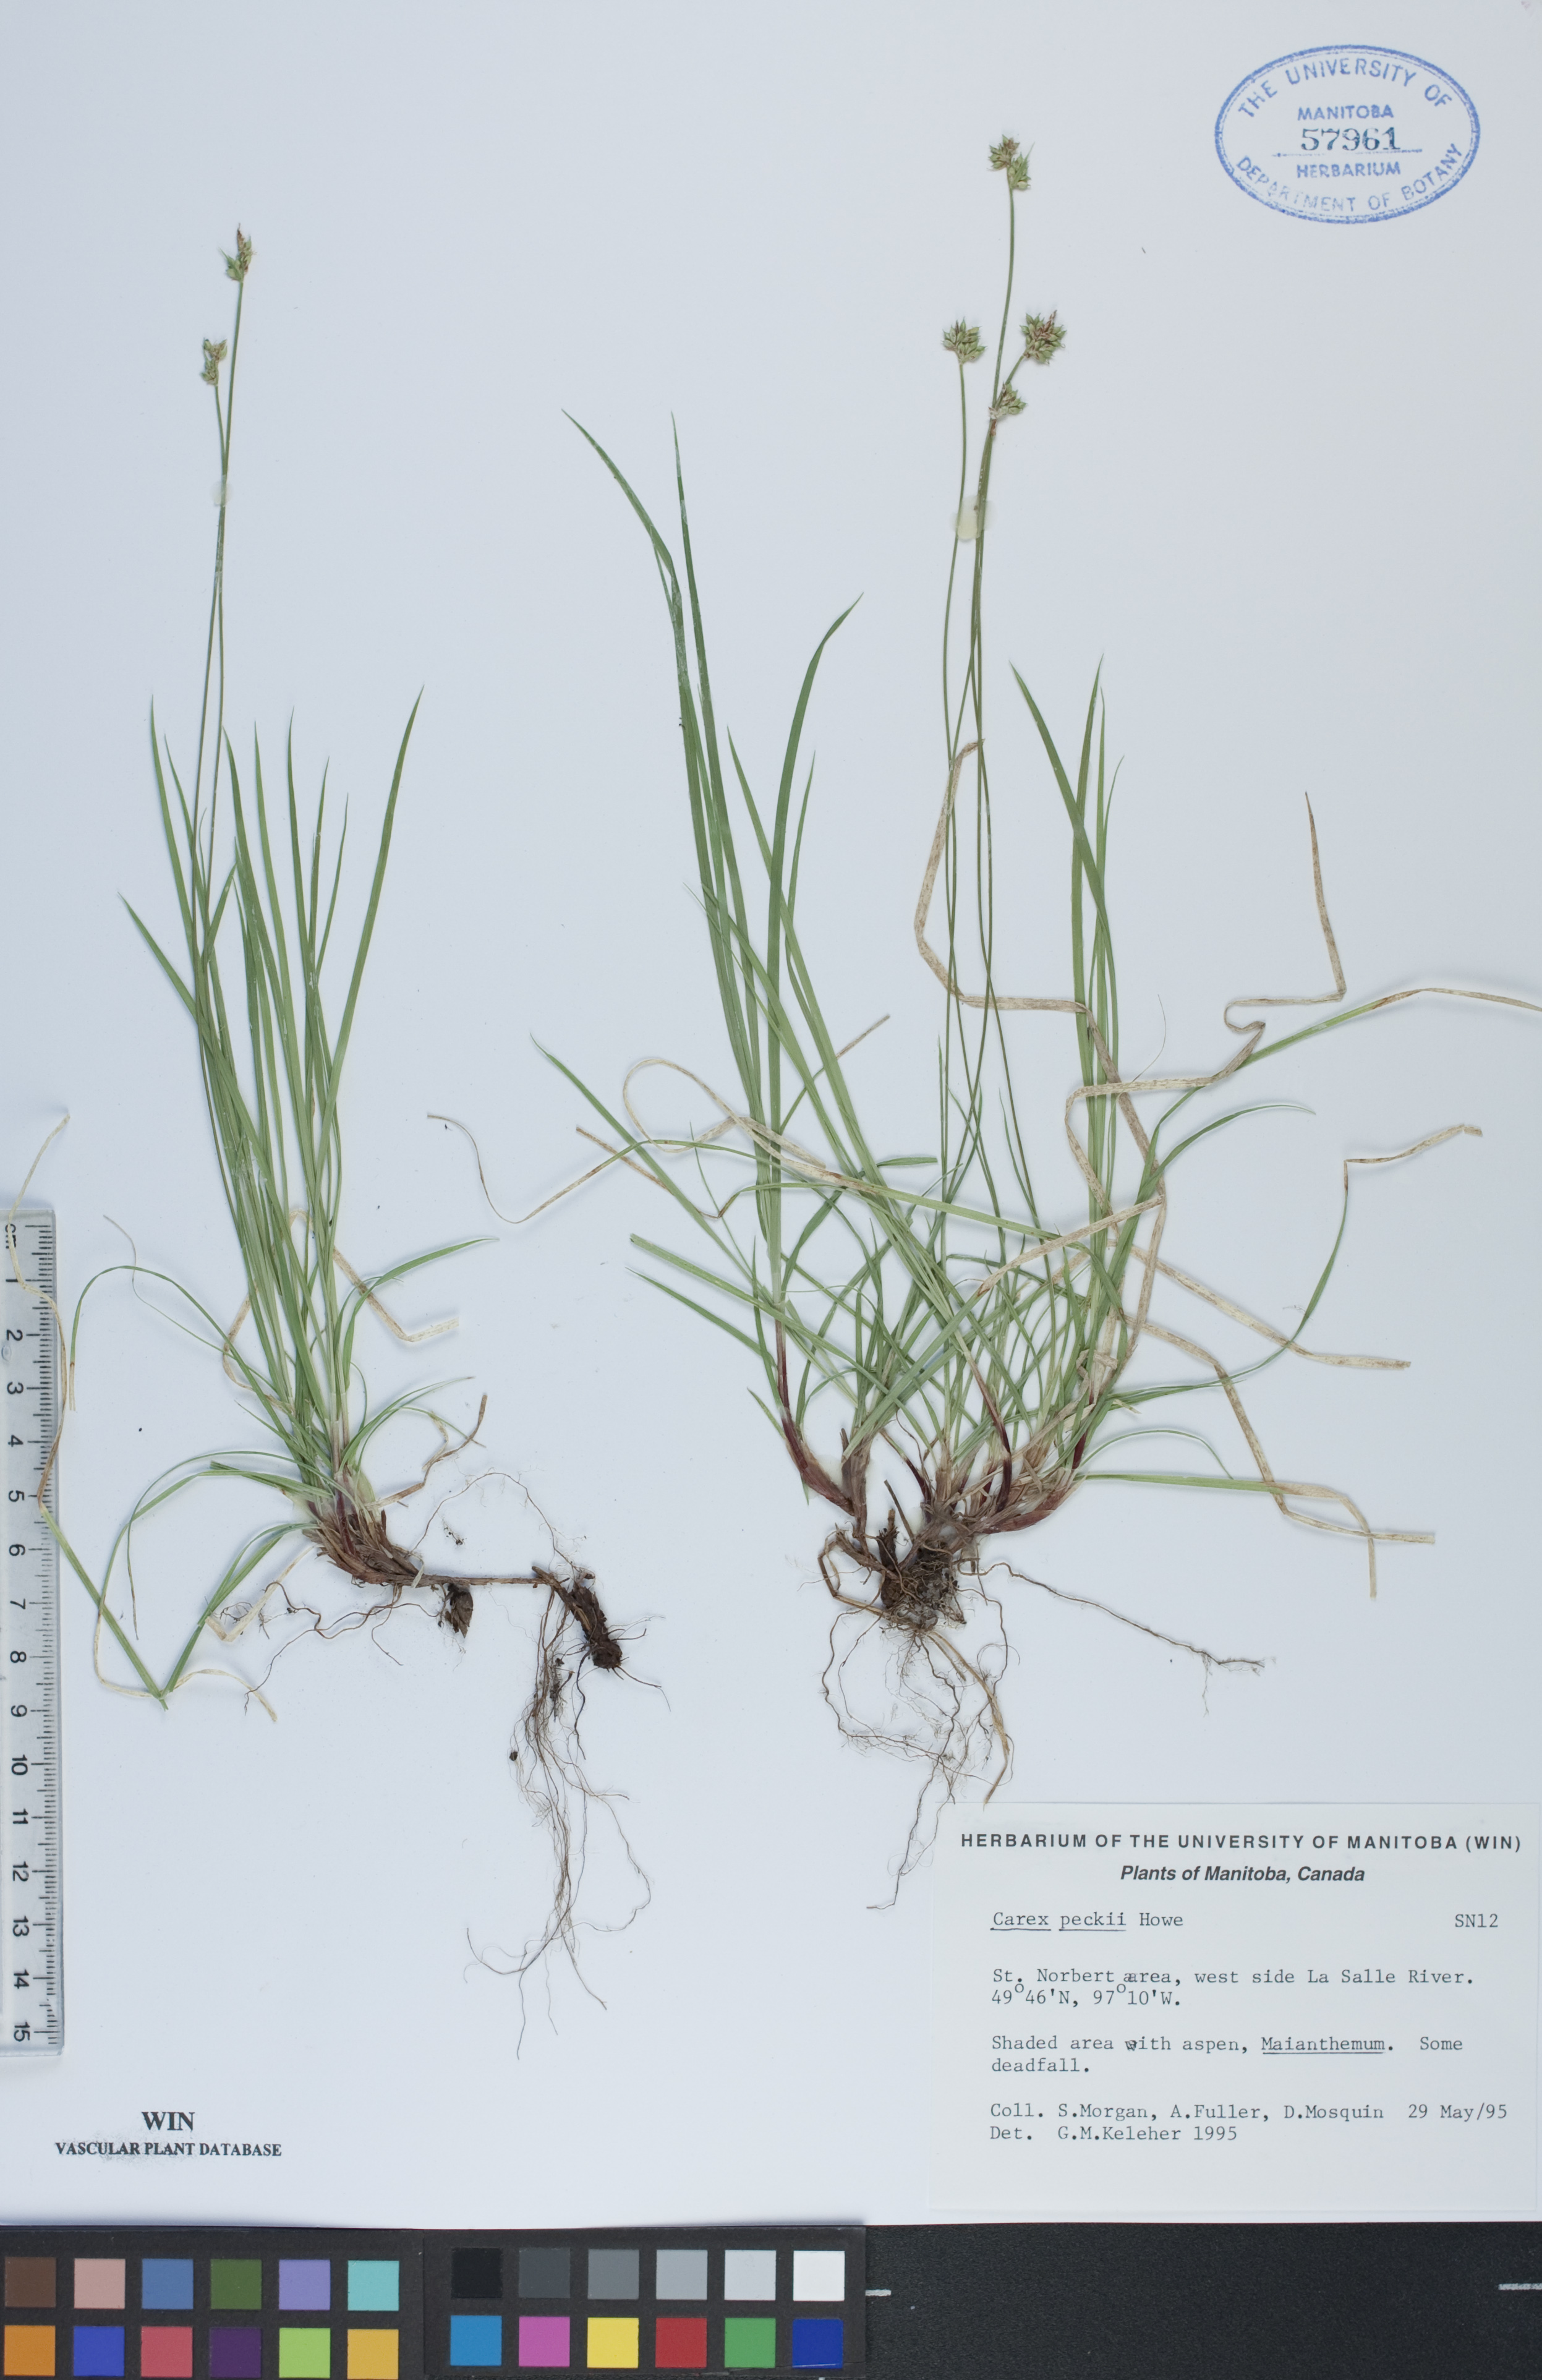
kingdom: Plantae
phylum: Tracheophyta
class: Liliopsida
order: Poales
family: Cyperaceae
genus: Carex
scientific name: Carex peckii
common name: Peck's oak sedge
